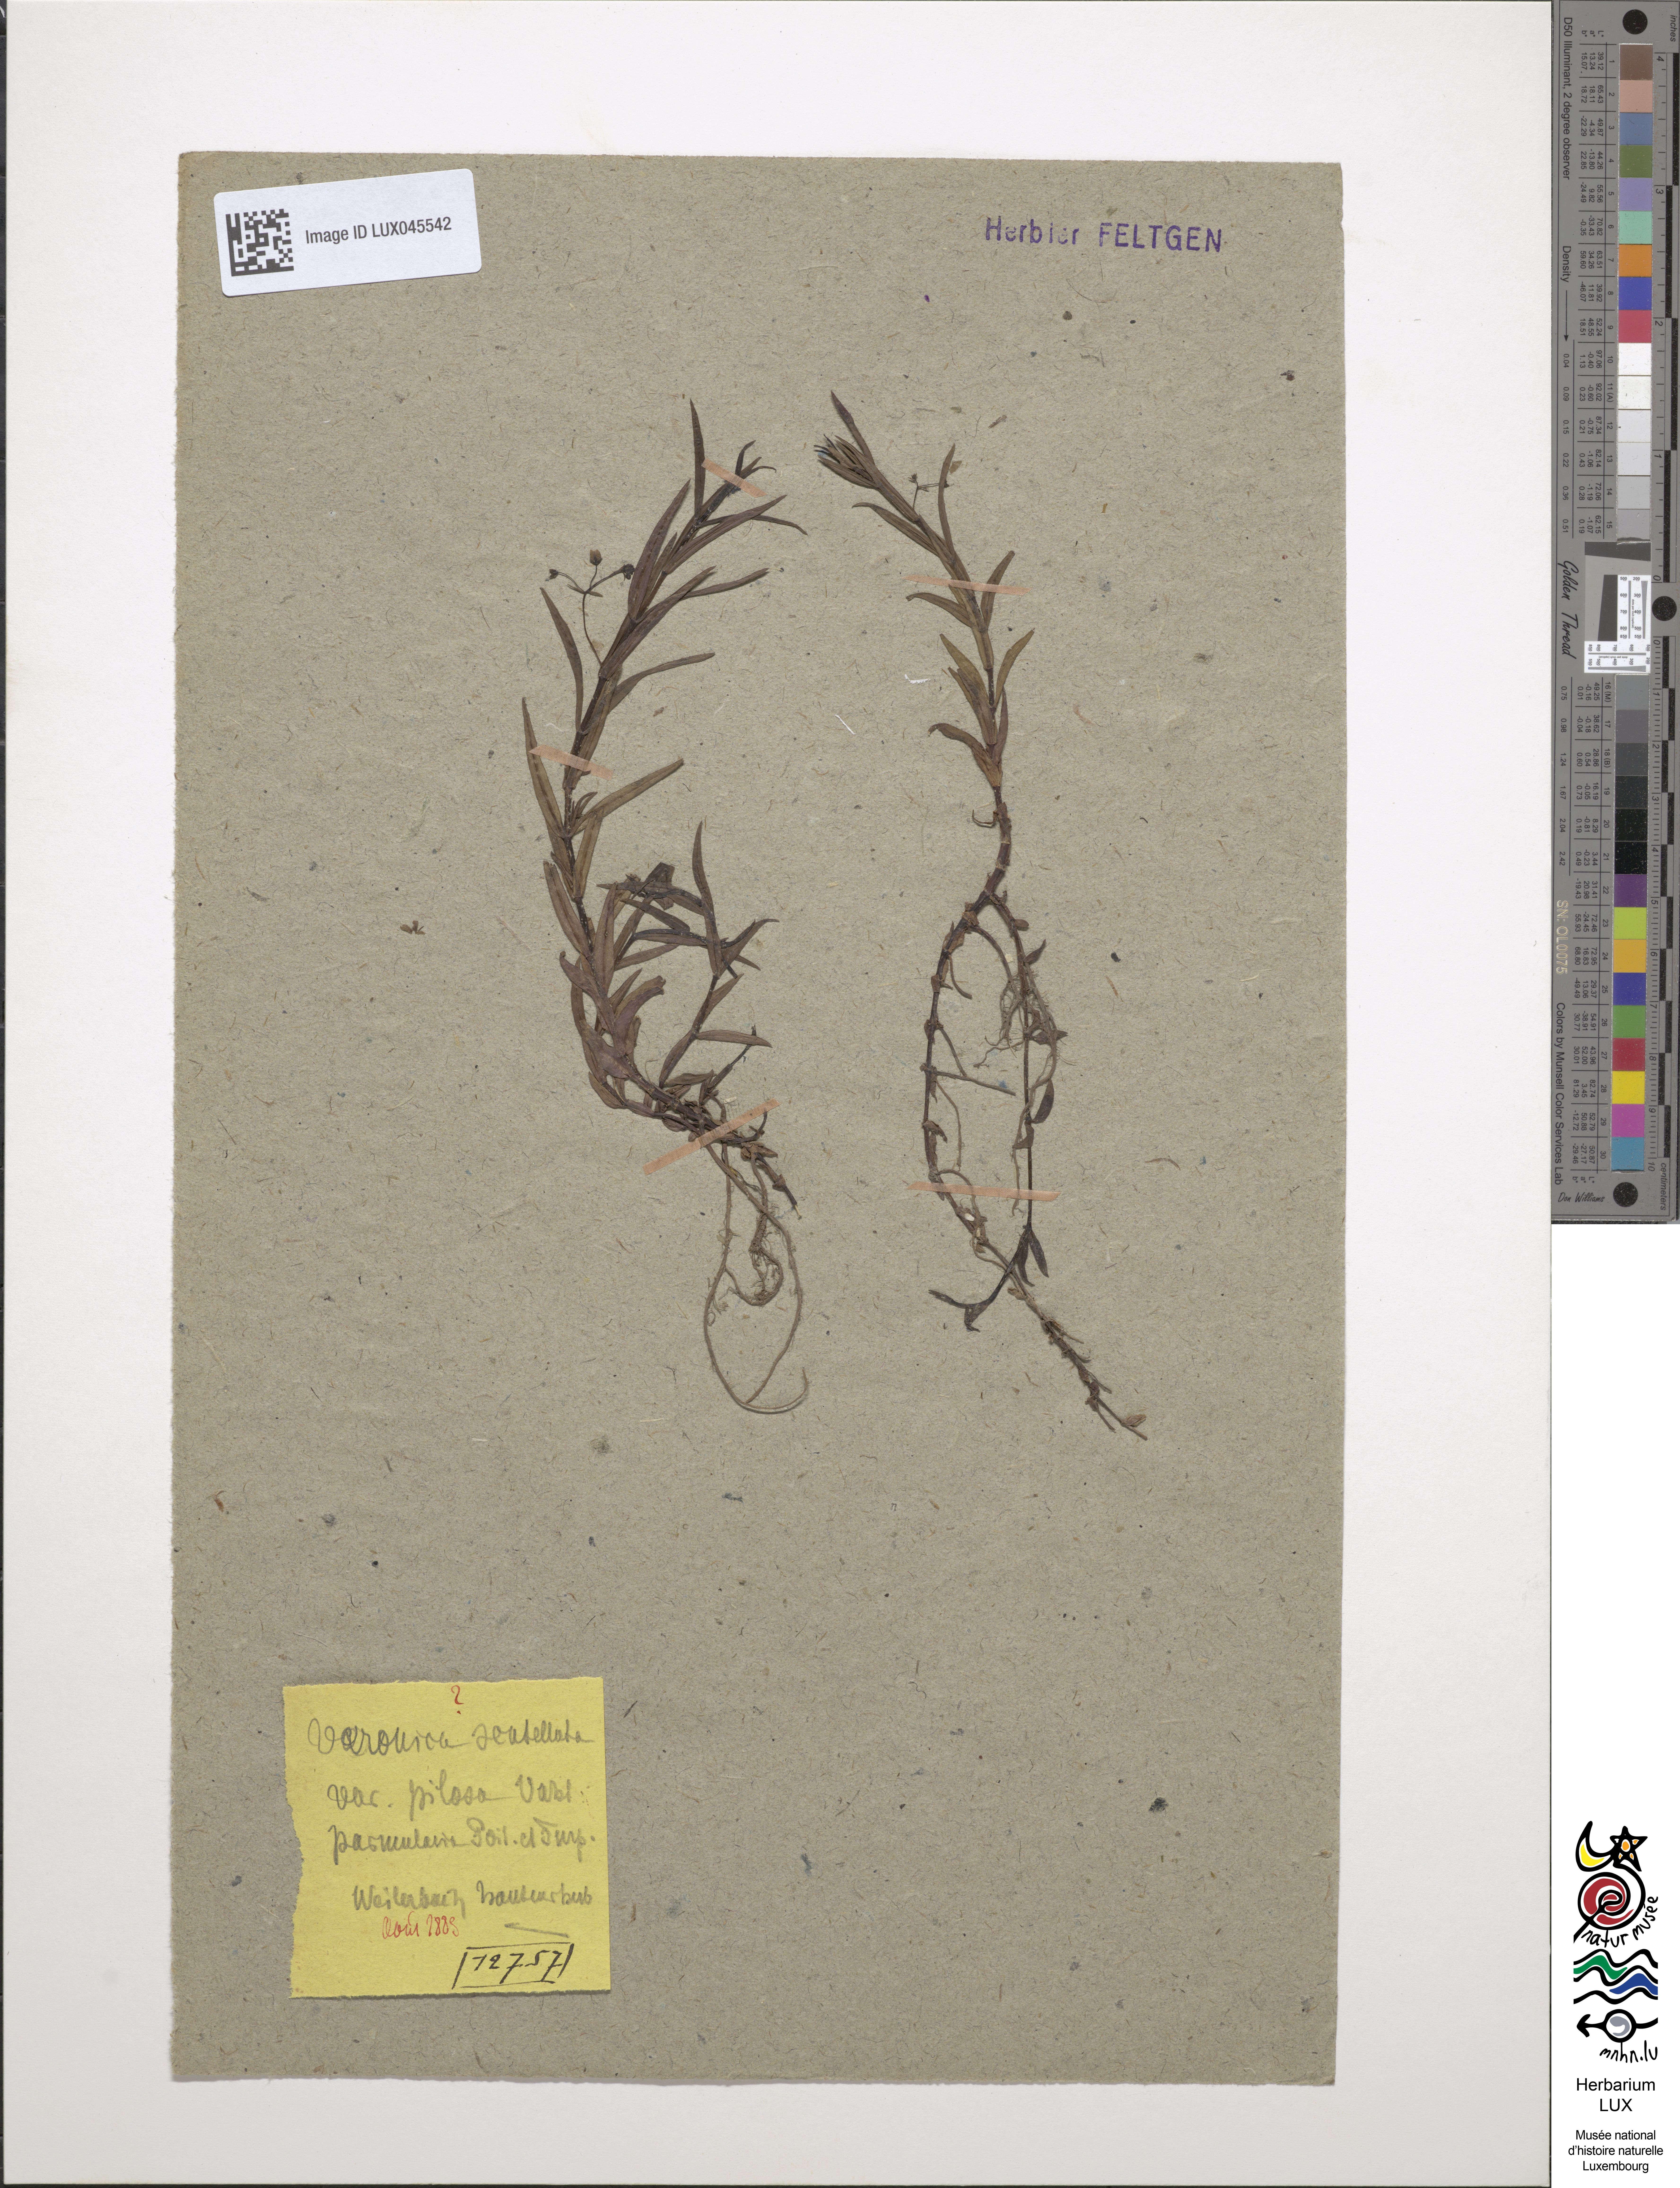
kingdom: Plantae
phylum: Tracheophyta
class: Magnoliopsida
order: Lamiales
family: Plantaginaceae
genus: Veronica
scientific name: Veronica scutellata
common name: Marsh speedwell
